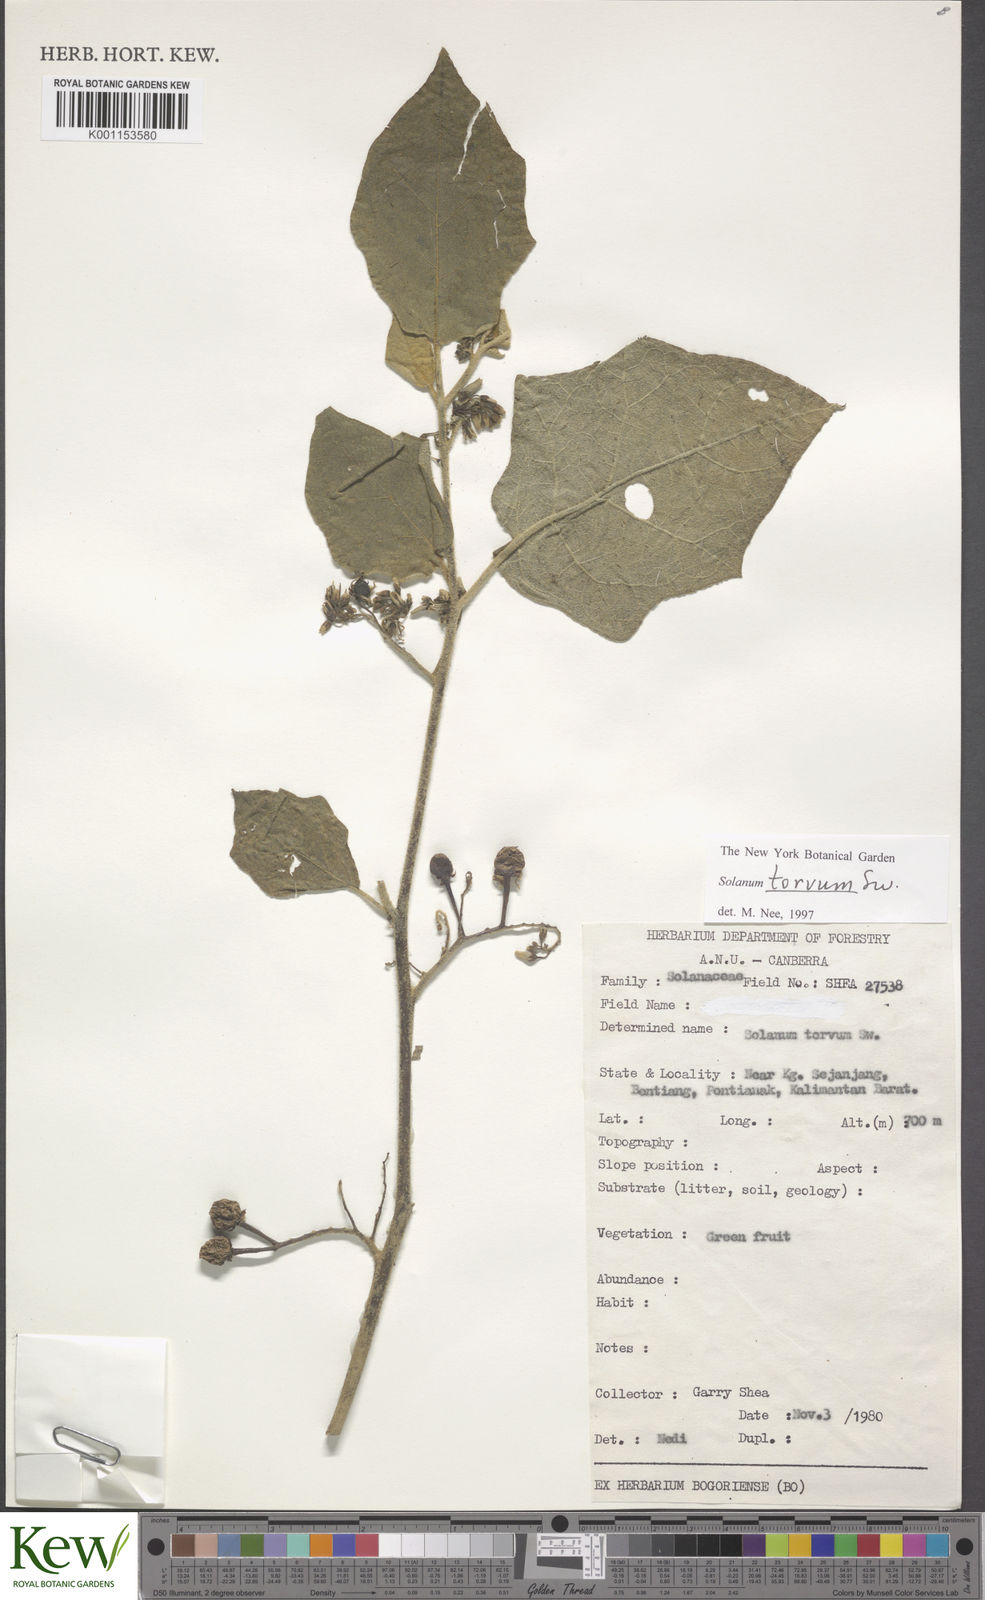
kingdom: Plantae
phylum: Tracheophyta
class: Magnoliopsida
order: Solanales
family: Solanaceae
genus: Solanum
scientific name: Solanum torvum
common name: Turkey berry
